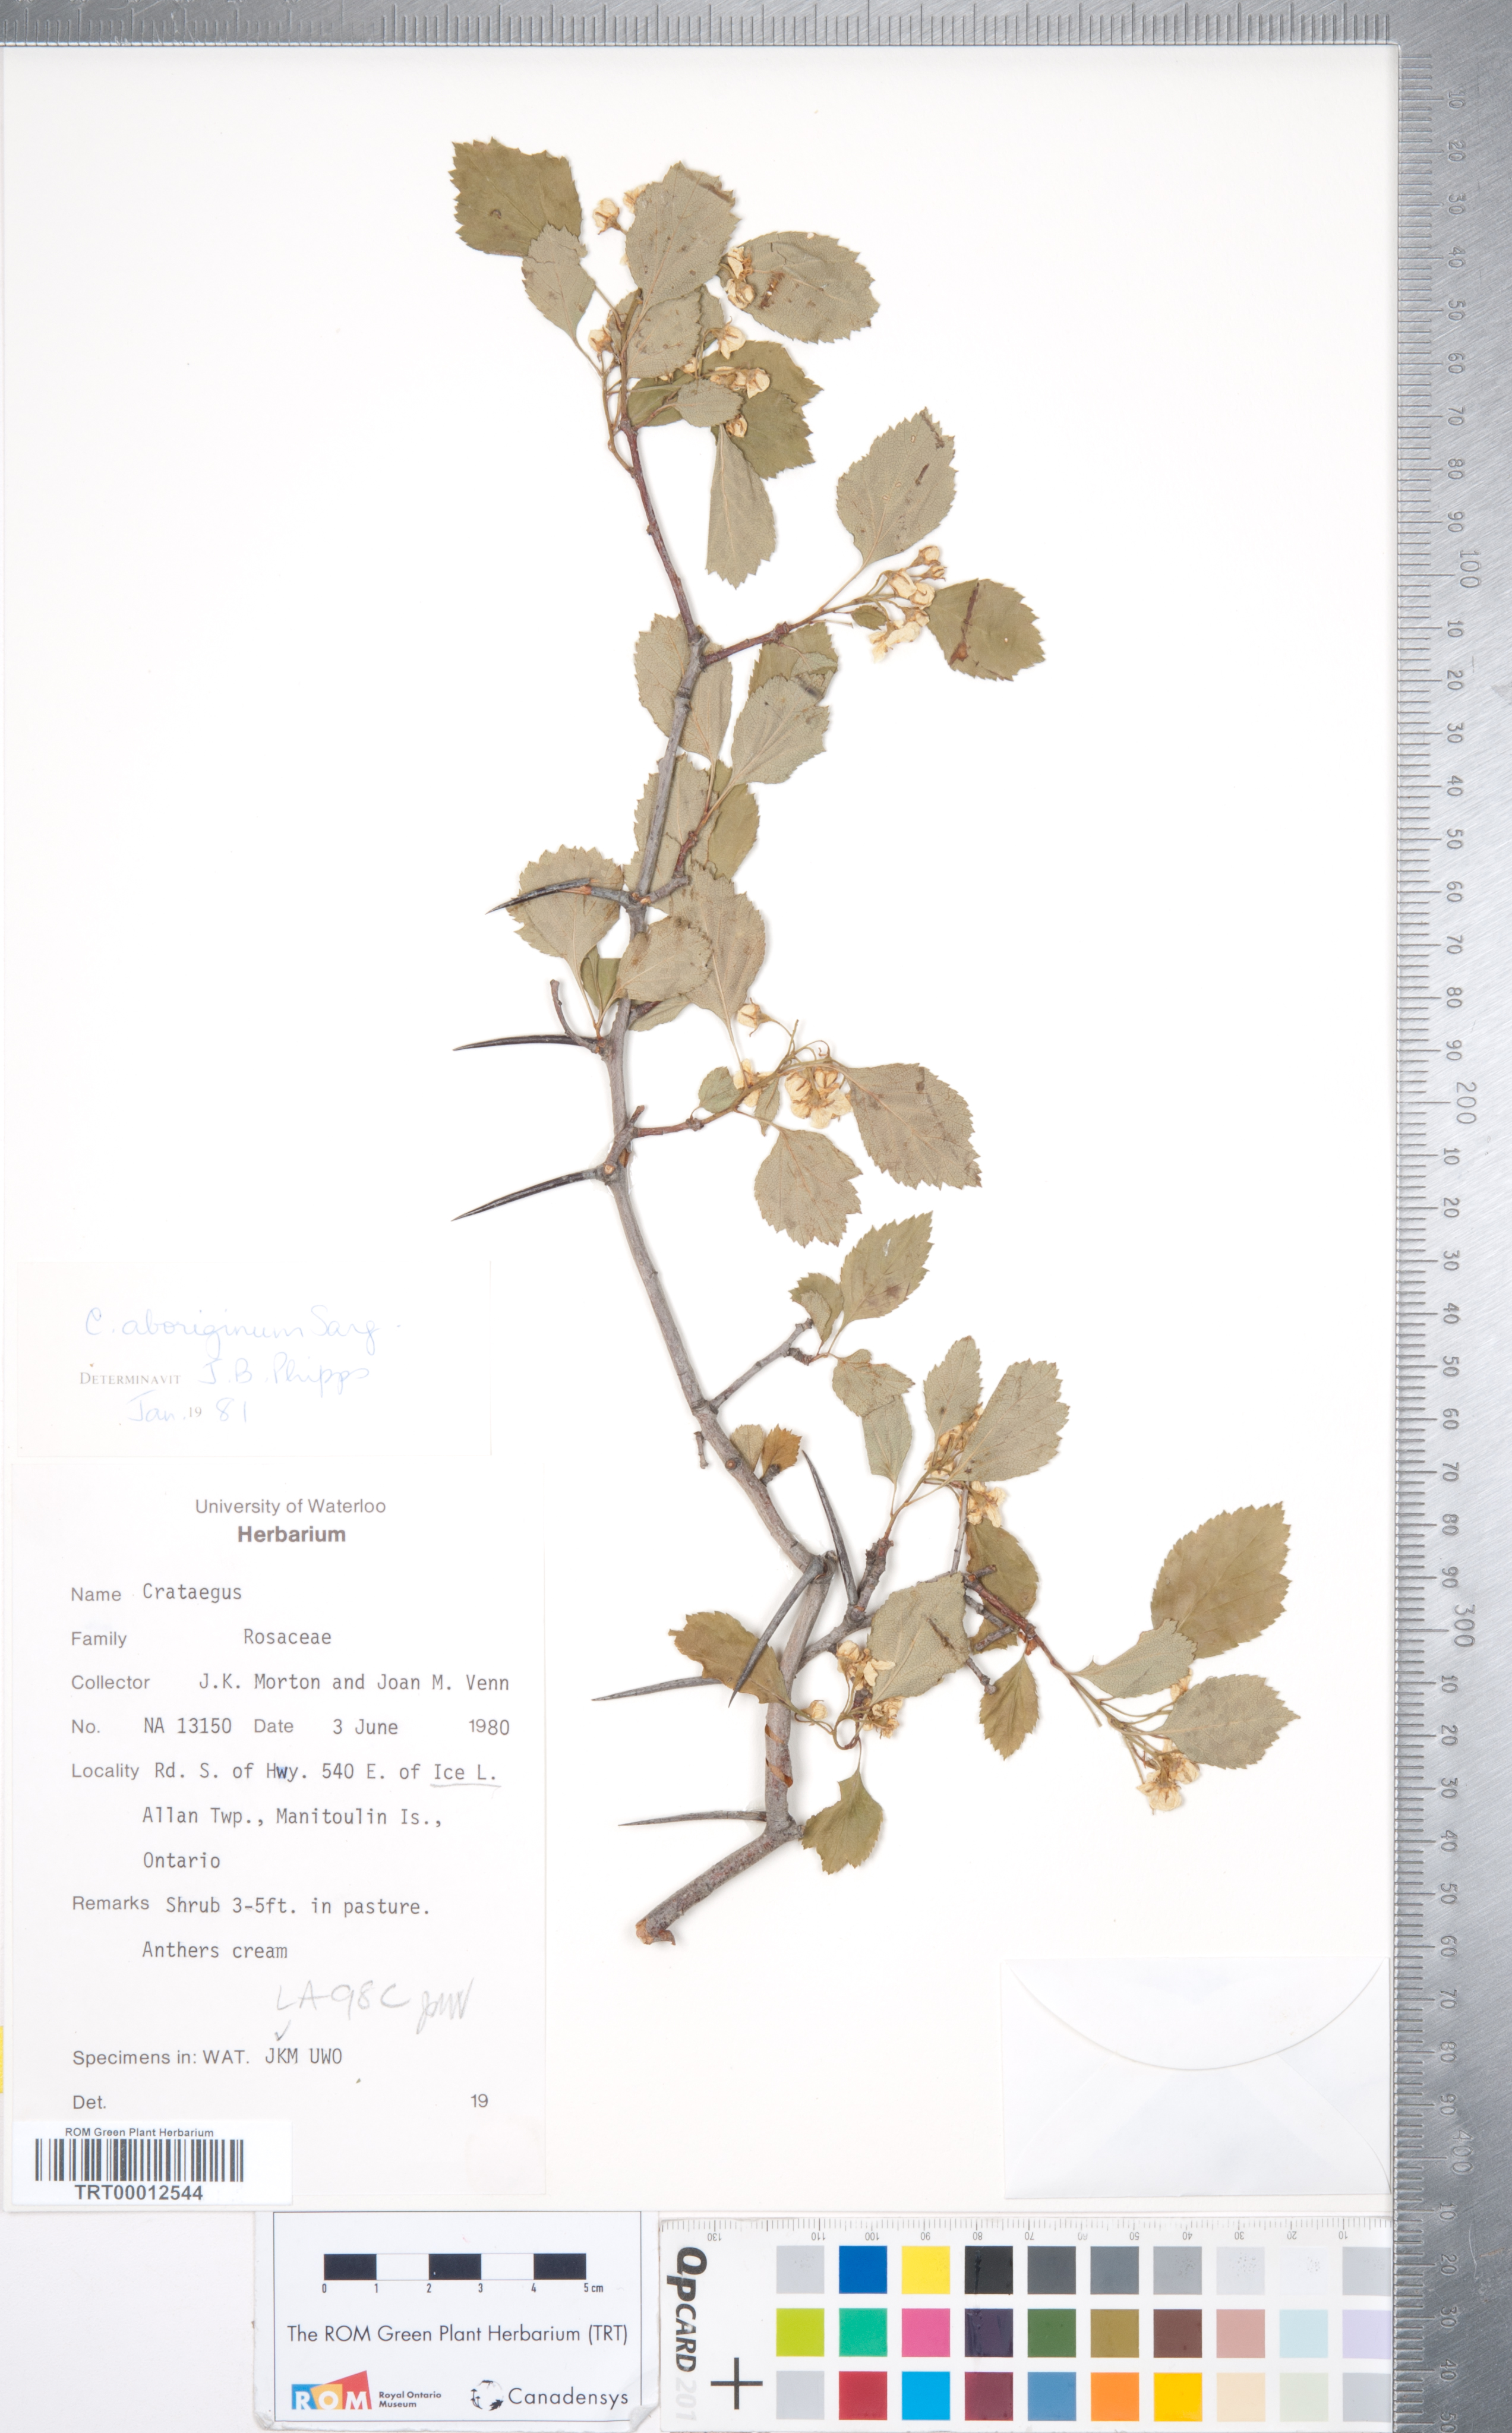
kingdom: Plantae
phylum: Tracheophyta
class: Magnoliopsida
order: Rosales
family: Rosaceae
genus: Crataegus
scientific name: Crataegus chrysocarpa
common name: Fire-berry hawthorn
